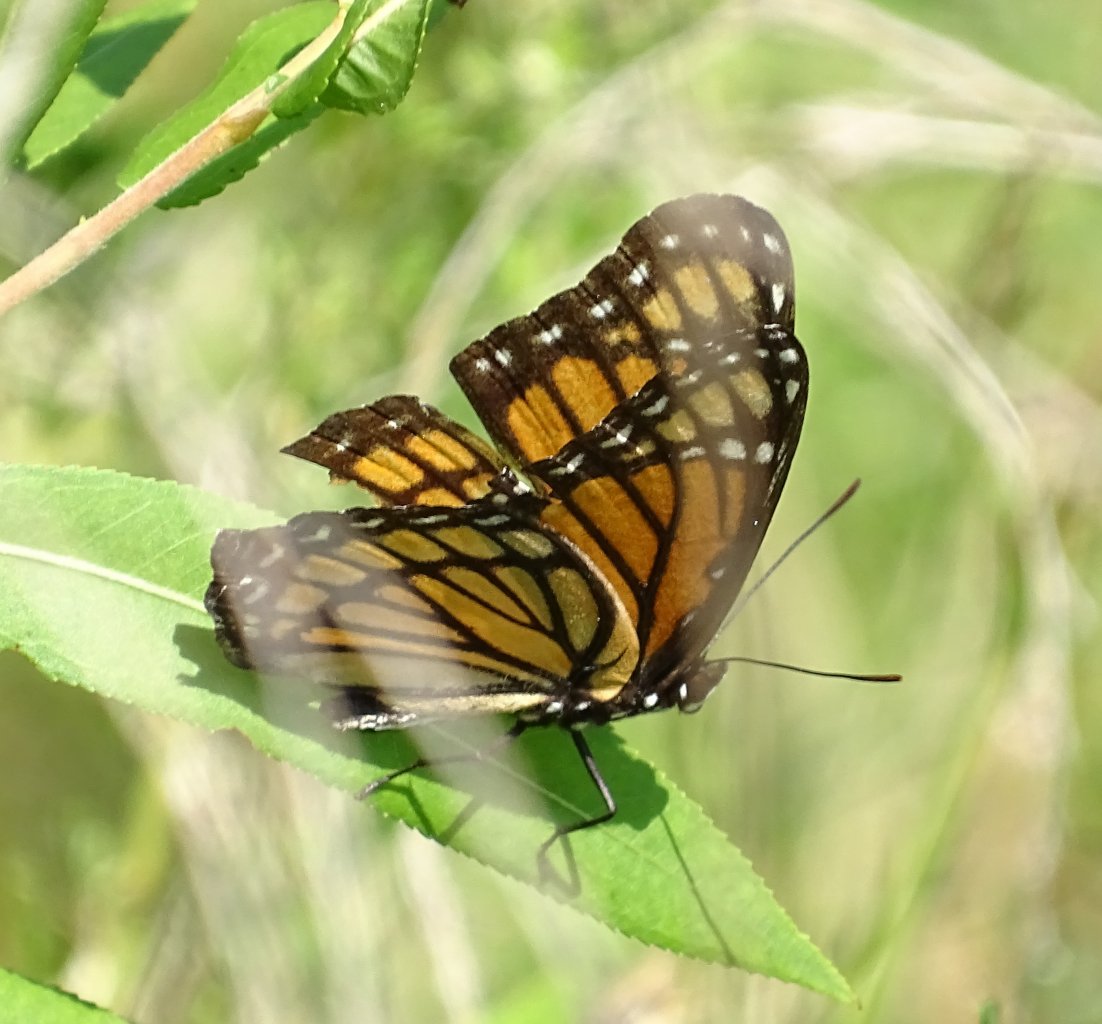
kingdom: Animalia
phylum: Arthropoda
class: Insecta
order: Lepidoptera
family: Nymphalidae
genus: Limenitis
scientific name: Limenitis archippus
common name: Viceroy
